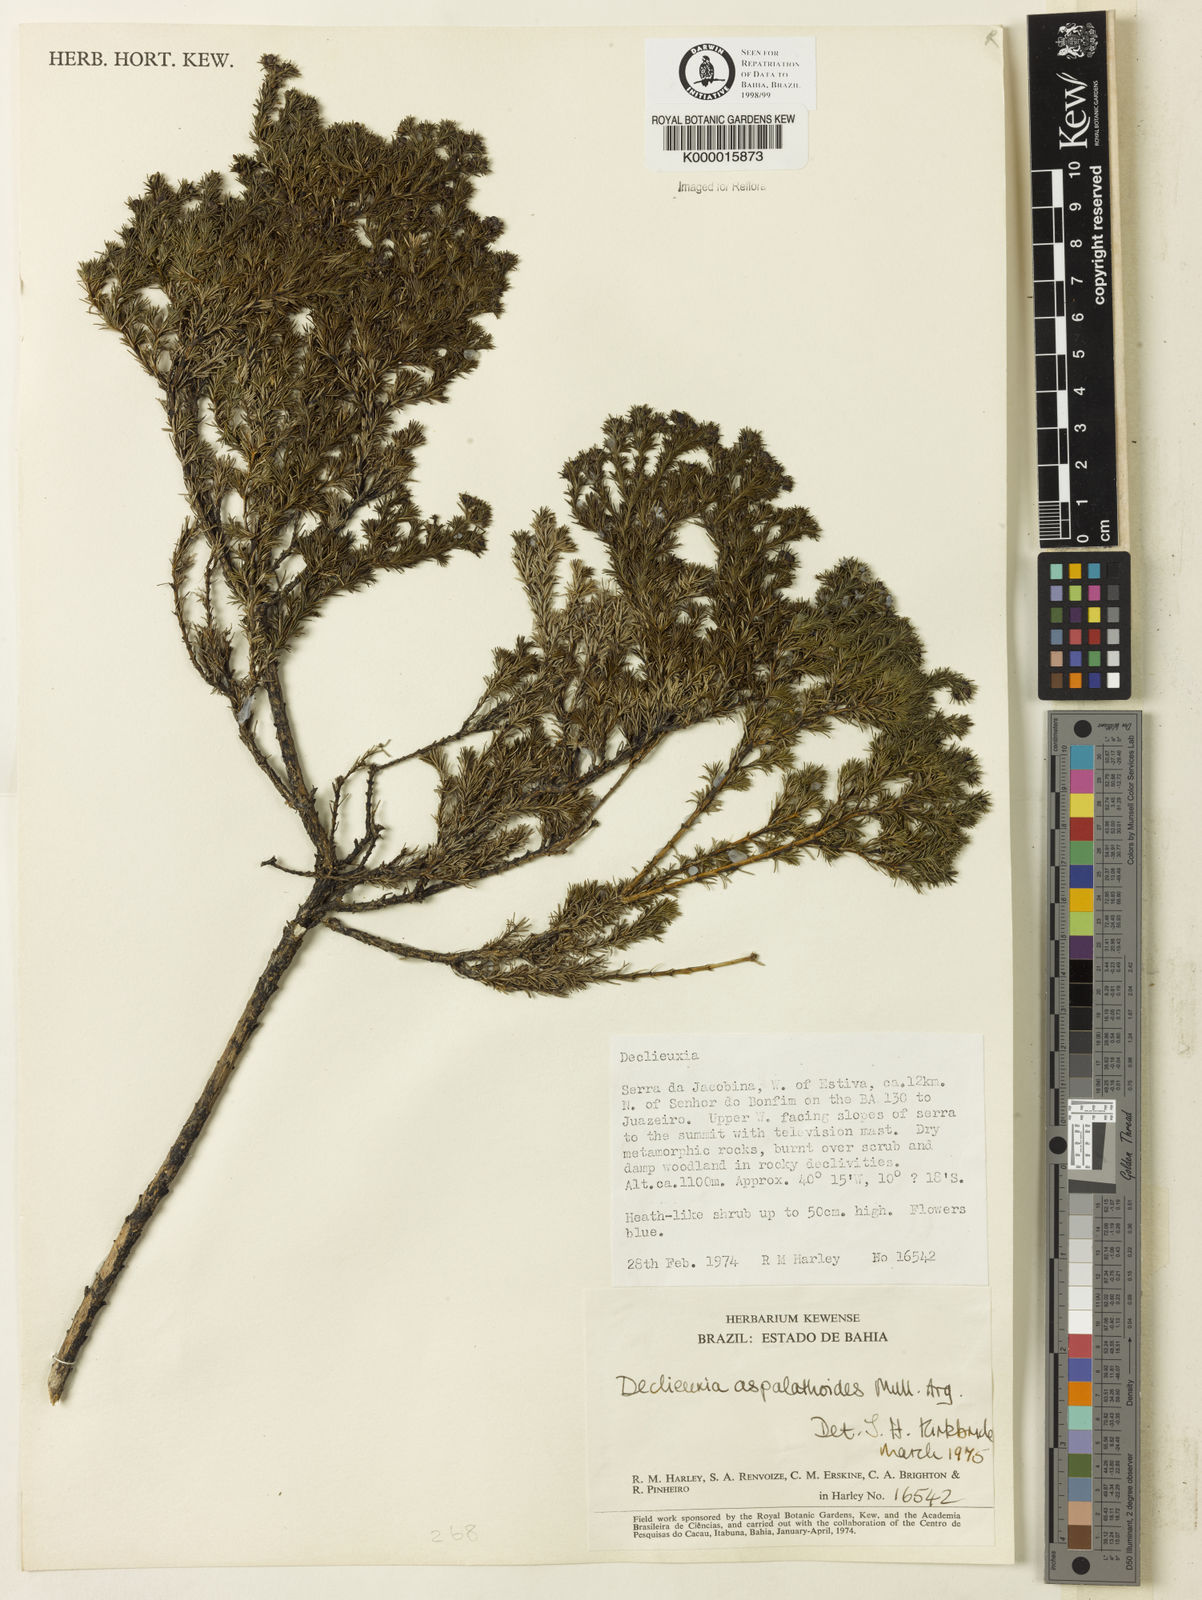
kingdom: Plantae
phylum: Tracheophyta
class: Magnoliopsida
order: Gentianales
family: Rubiaceae
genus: Declieuxia
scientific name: Declieuxia aspalathoides
